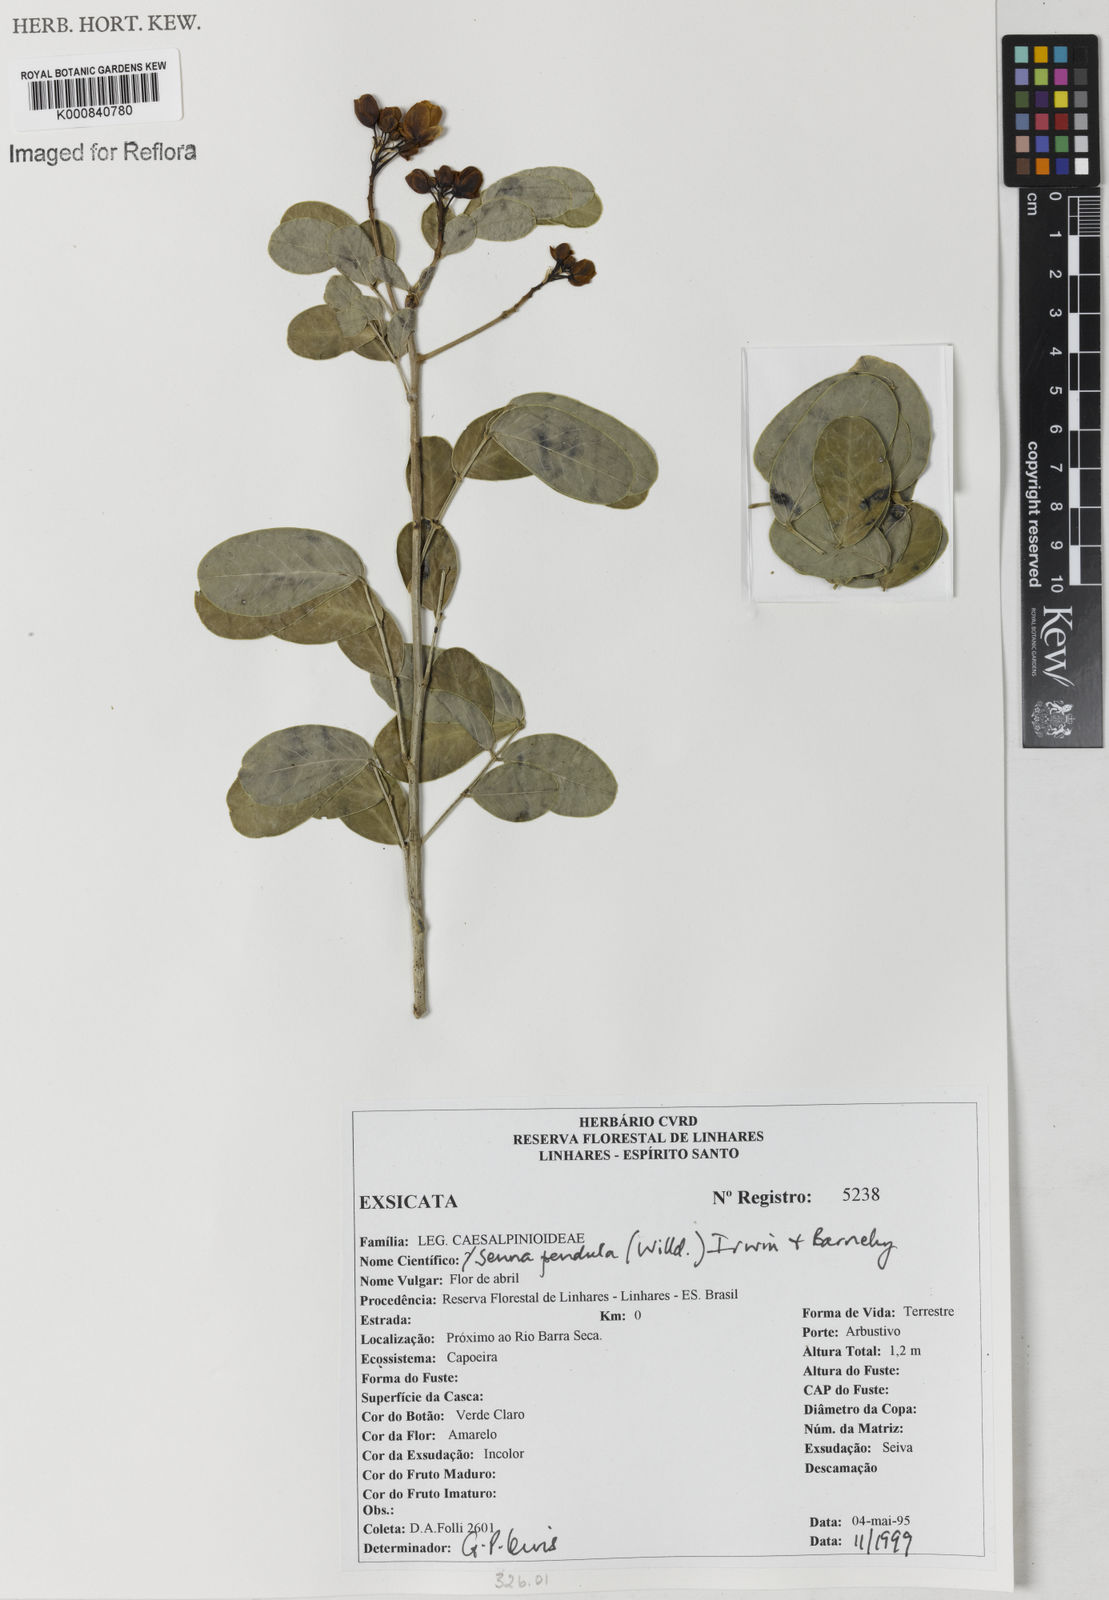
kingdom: Plantae
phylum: Tracheophyta
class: Magnoliopsida
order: Fabales
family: Fabaceae
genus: Senna
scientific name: Senna pendula
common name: Easter cassia
